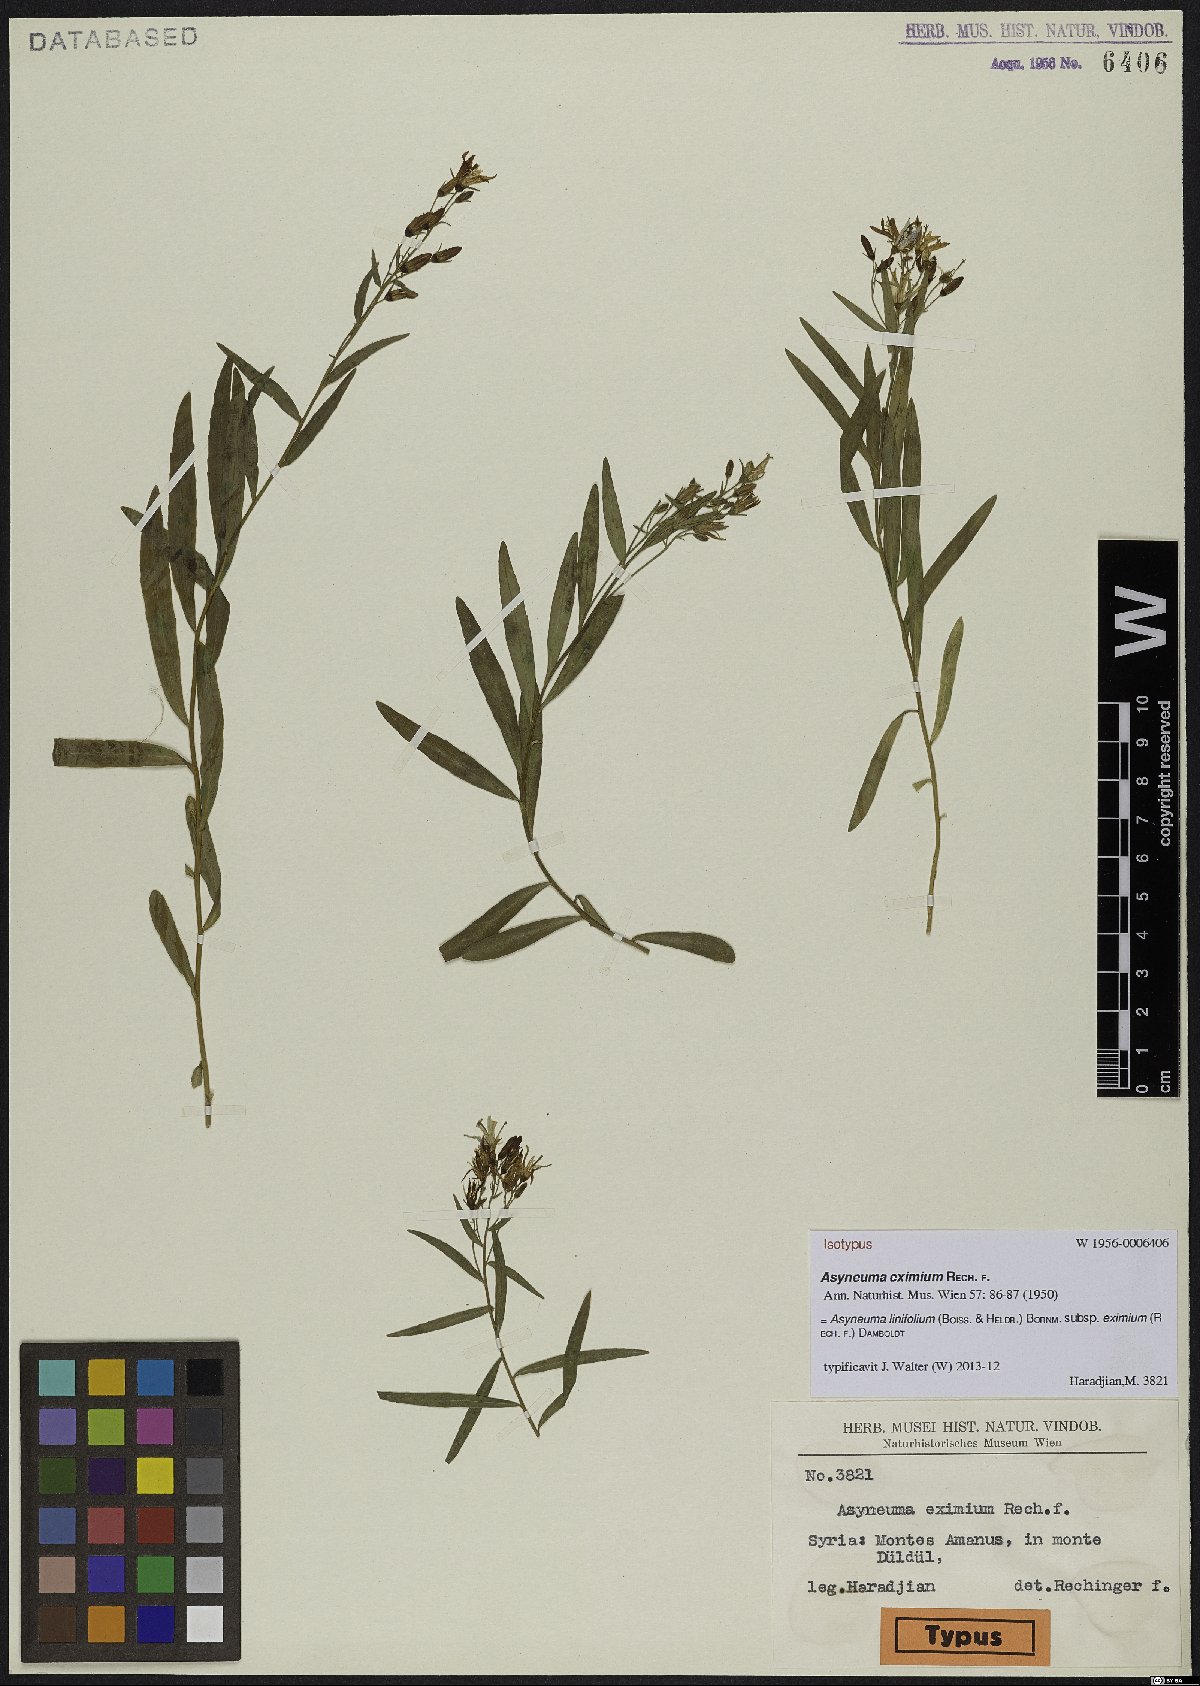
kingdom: Plantae
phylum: Tracheophyta
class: Magnoliopsida
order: Asterales
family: Campanulaceae
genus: Asyneuma
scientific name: Asyneuma linifolium
